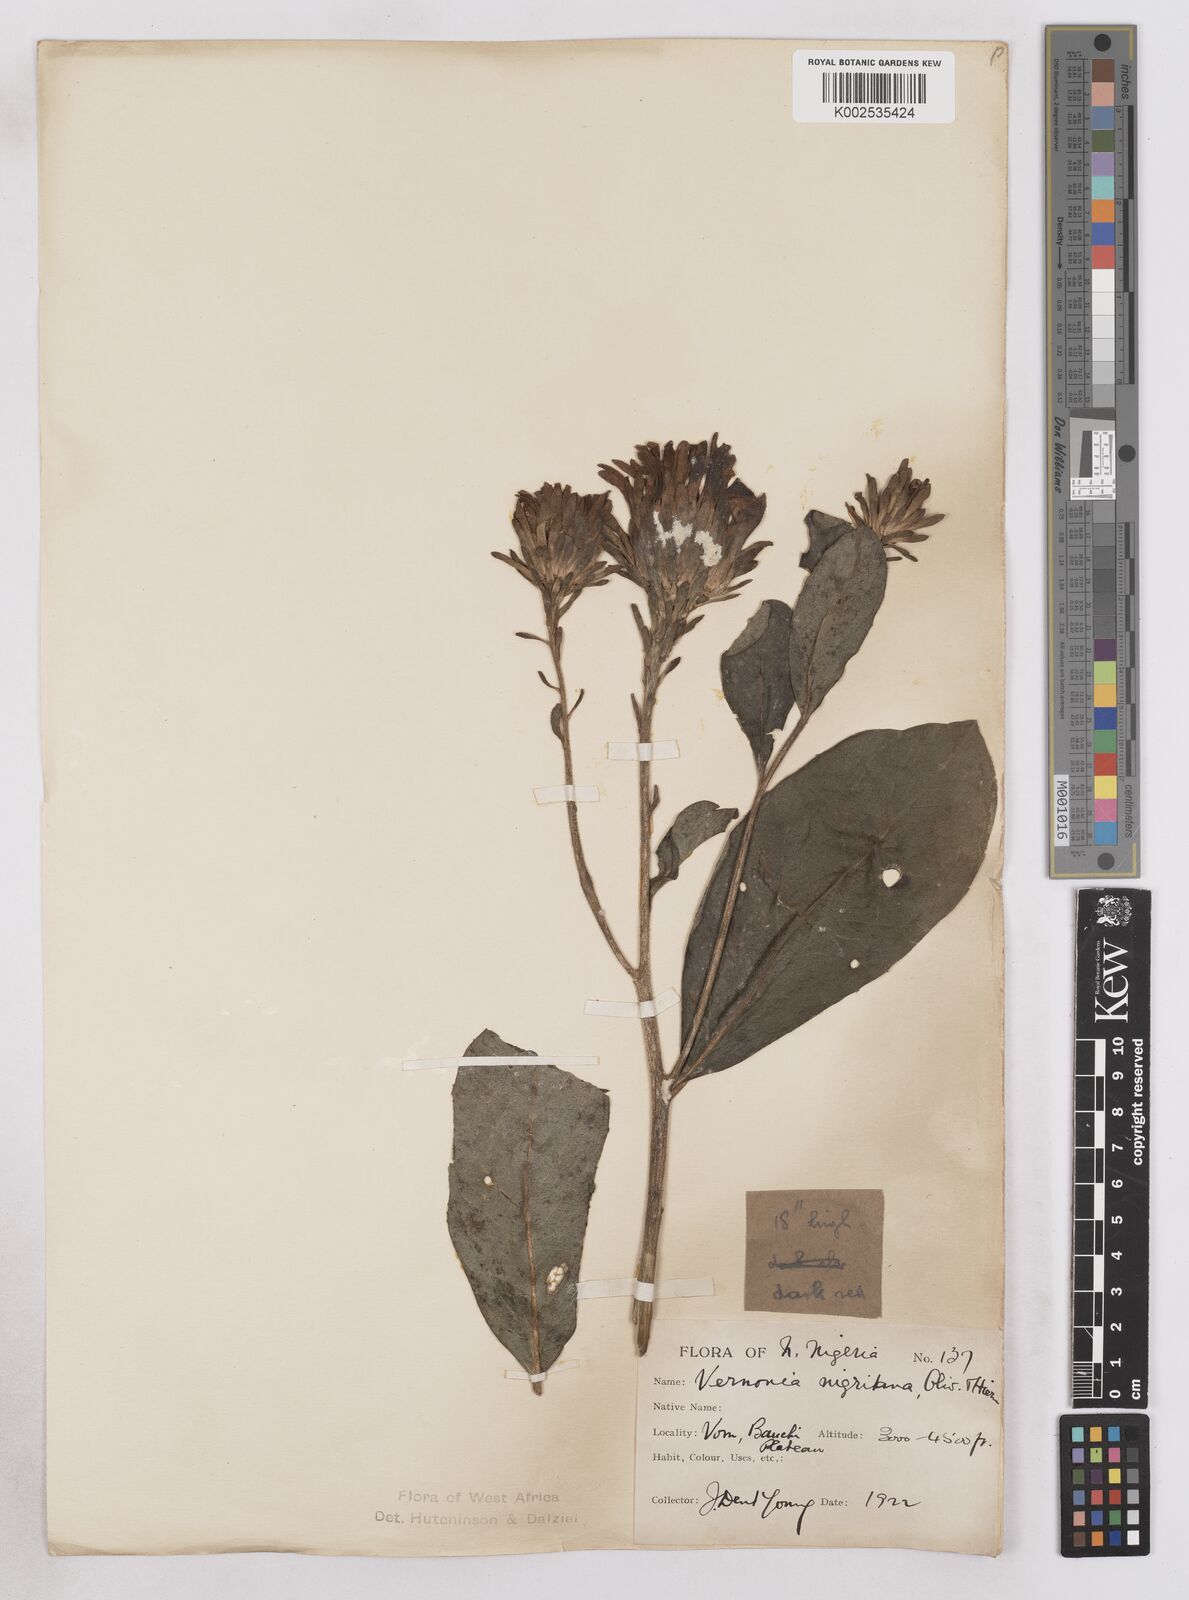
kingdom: Plantae
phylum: Tracheophyta
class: Magnoliopsida
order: Asterales
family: Asteraceae
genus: Linzia
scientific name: Linzia nigritiana
